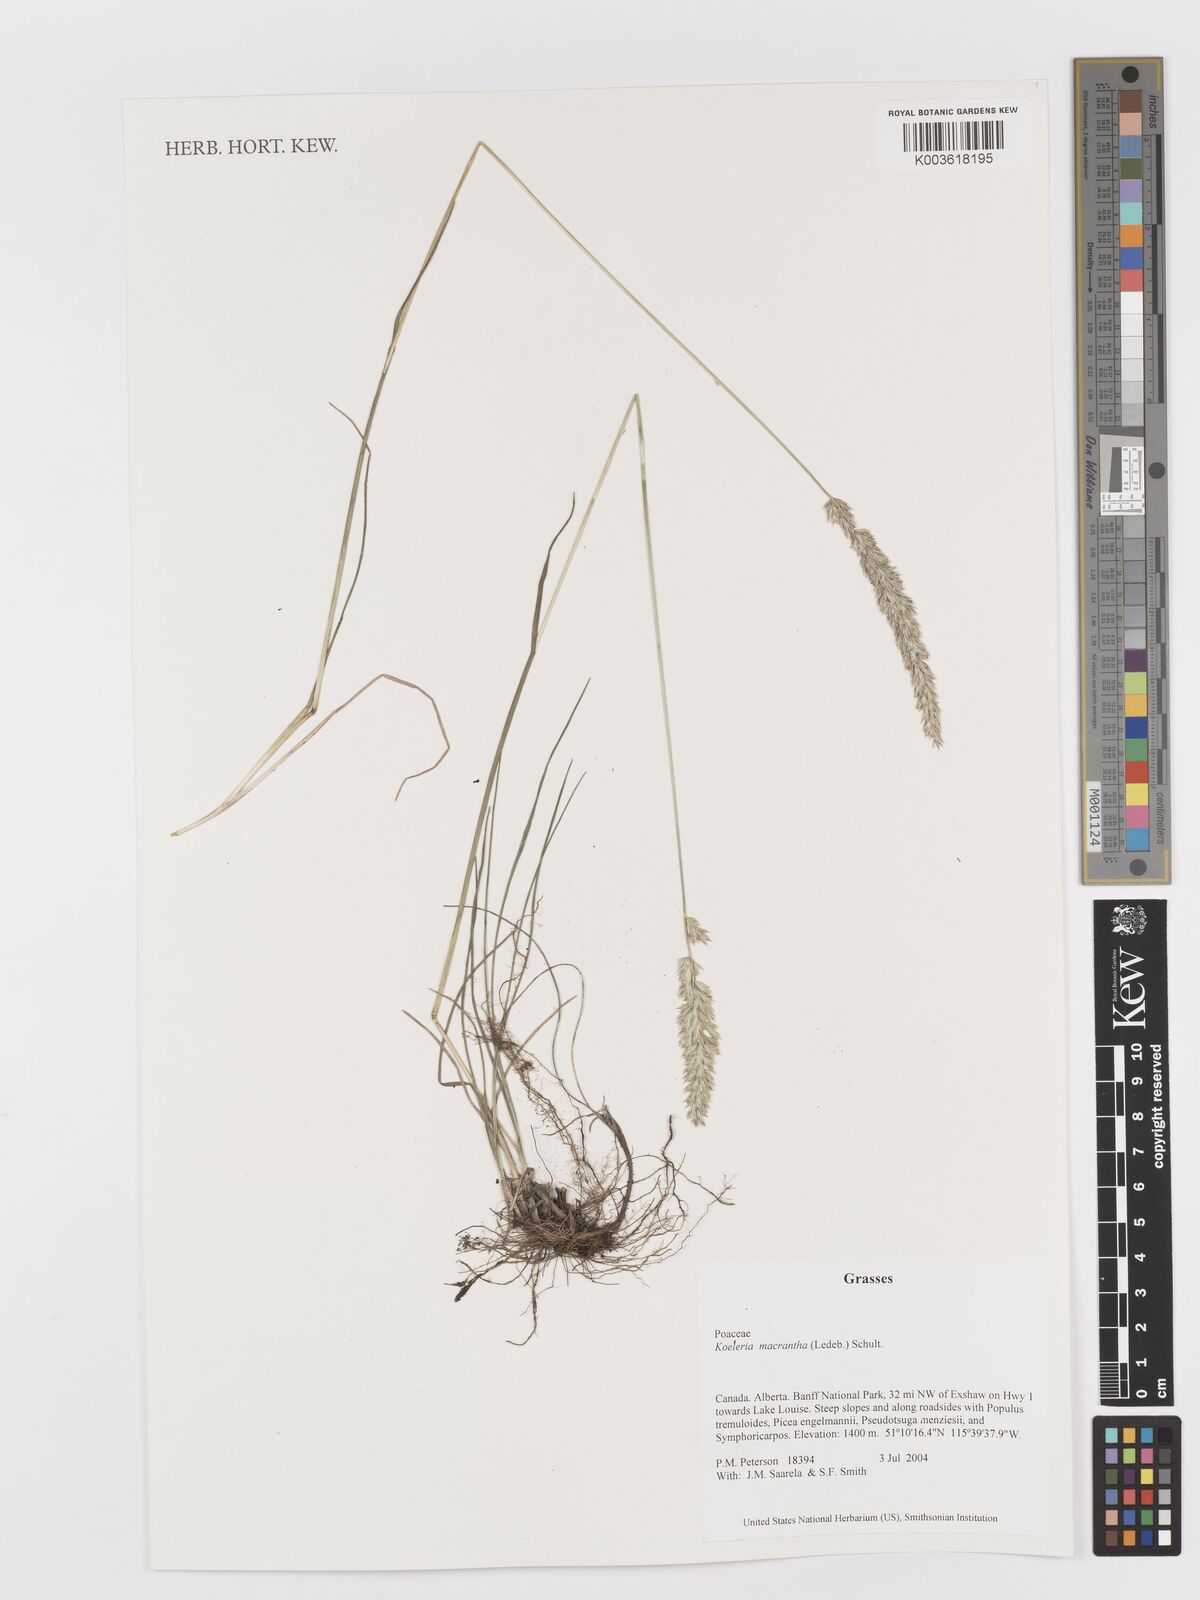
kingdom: Plantae
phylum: Tracheophyta
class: Liliopsida
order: Poales
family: Poaceae
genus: Koeleria
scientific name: Koeleria
